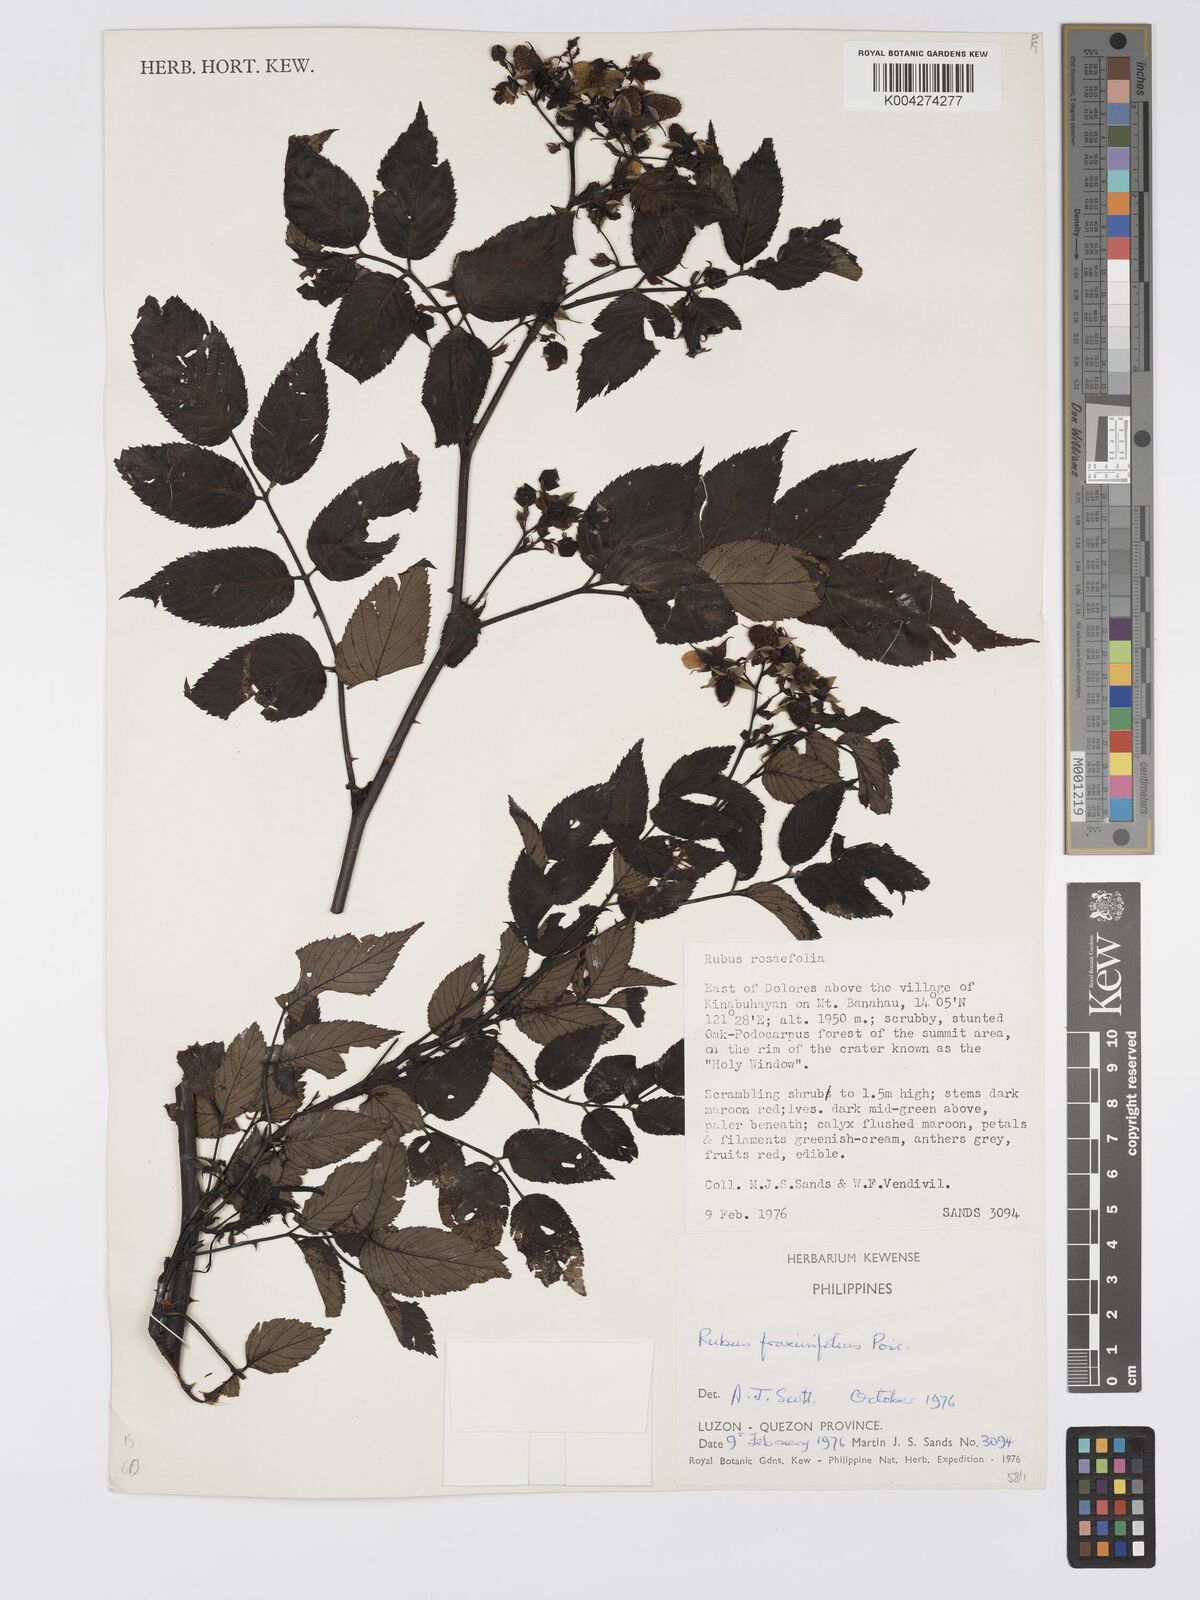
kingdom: Plantae
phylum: Tracheophyta
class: Magnoliopsida
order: Rosales
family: Rosaceae
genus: Rubus
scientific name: Rubus fraxinifolius
